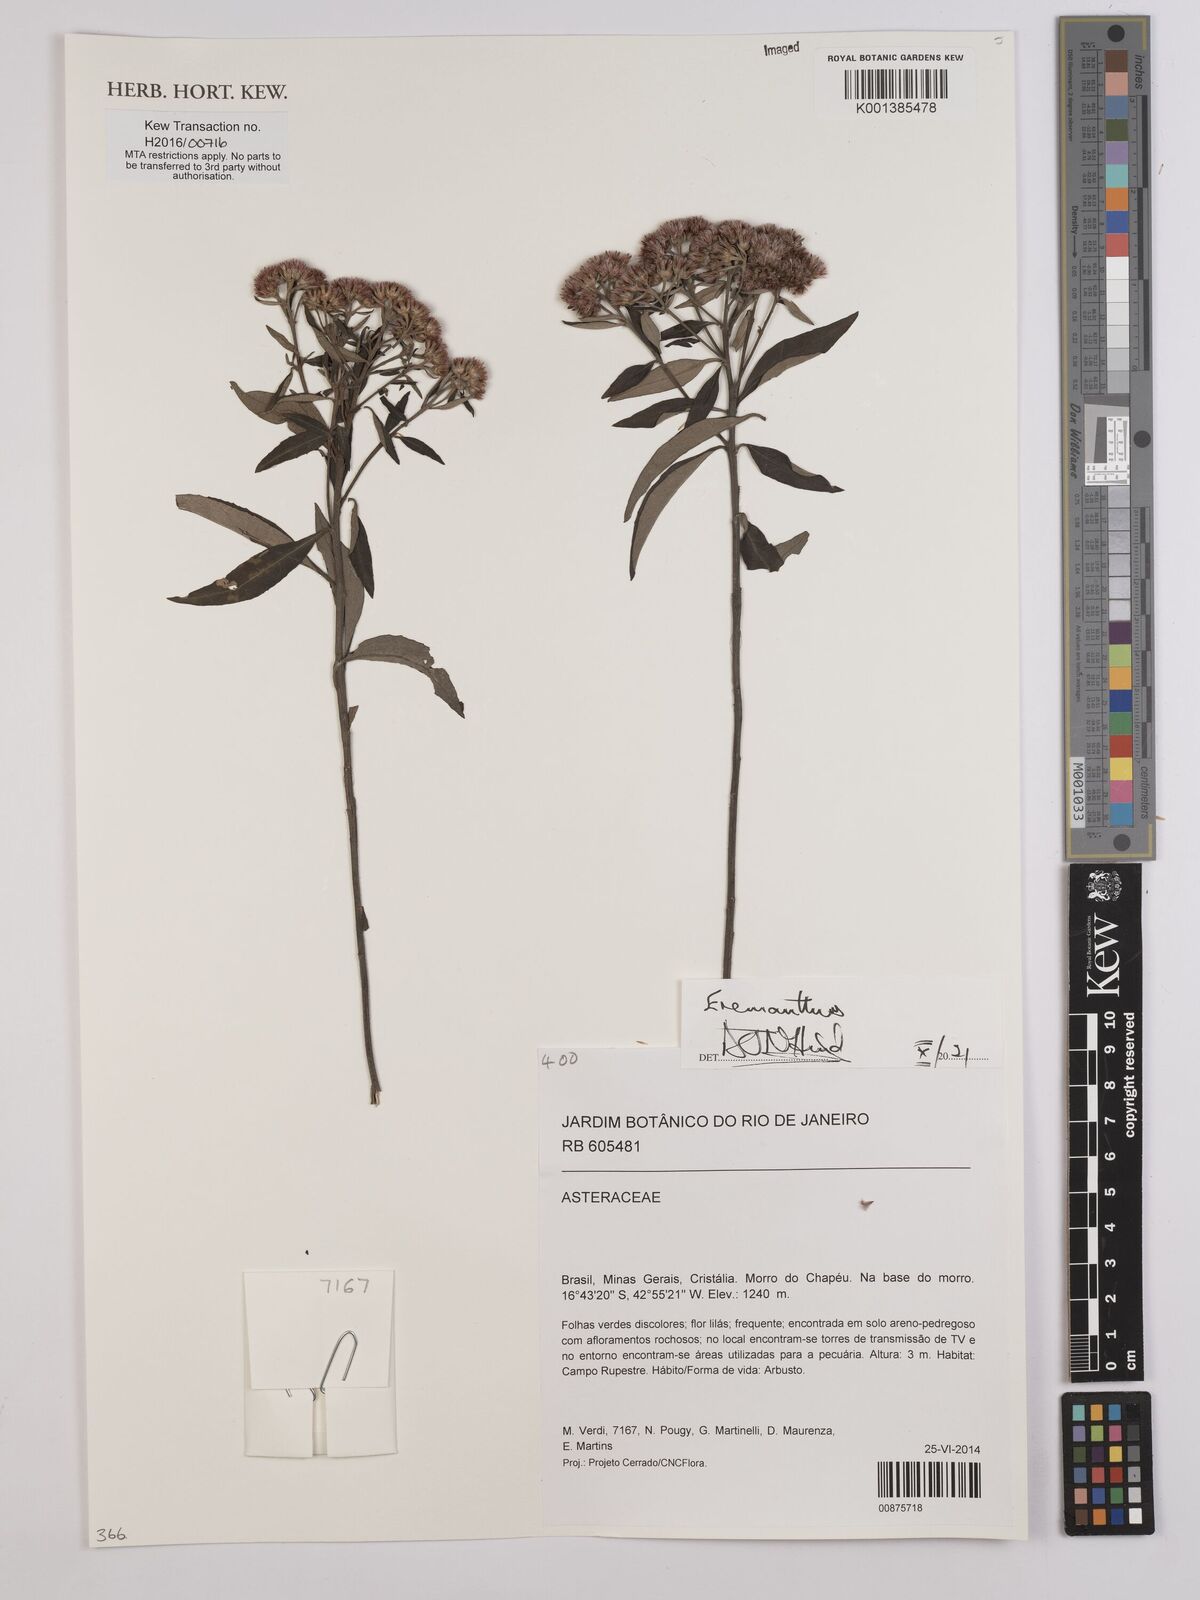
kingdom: Plantae
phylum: Tracheophyta
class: Magnoliopsida
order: Asterales
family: Asteraceae
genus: Eremanthus
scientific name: Eremanthus
